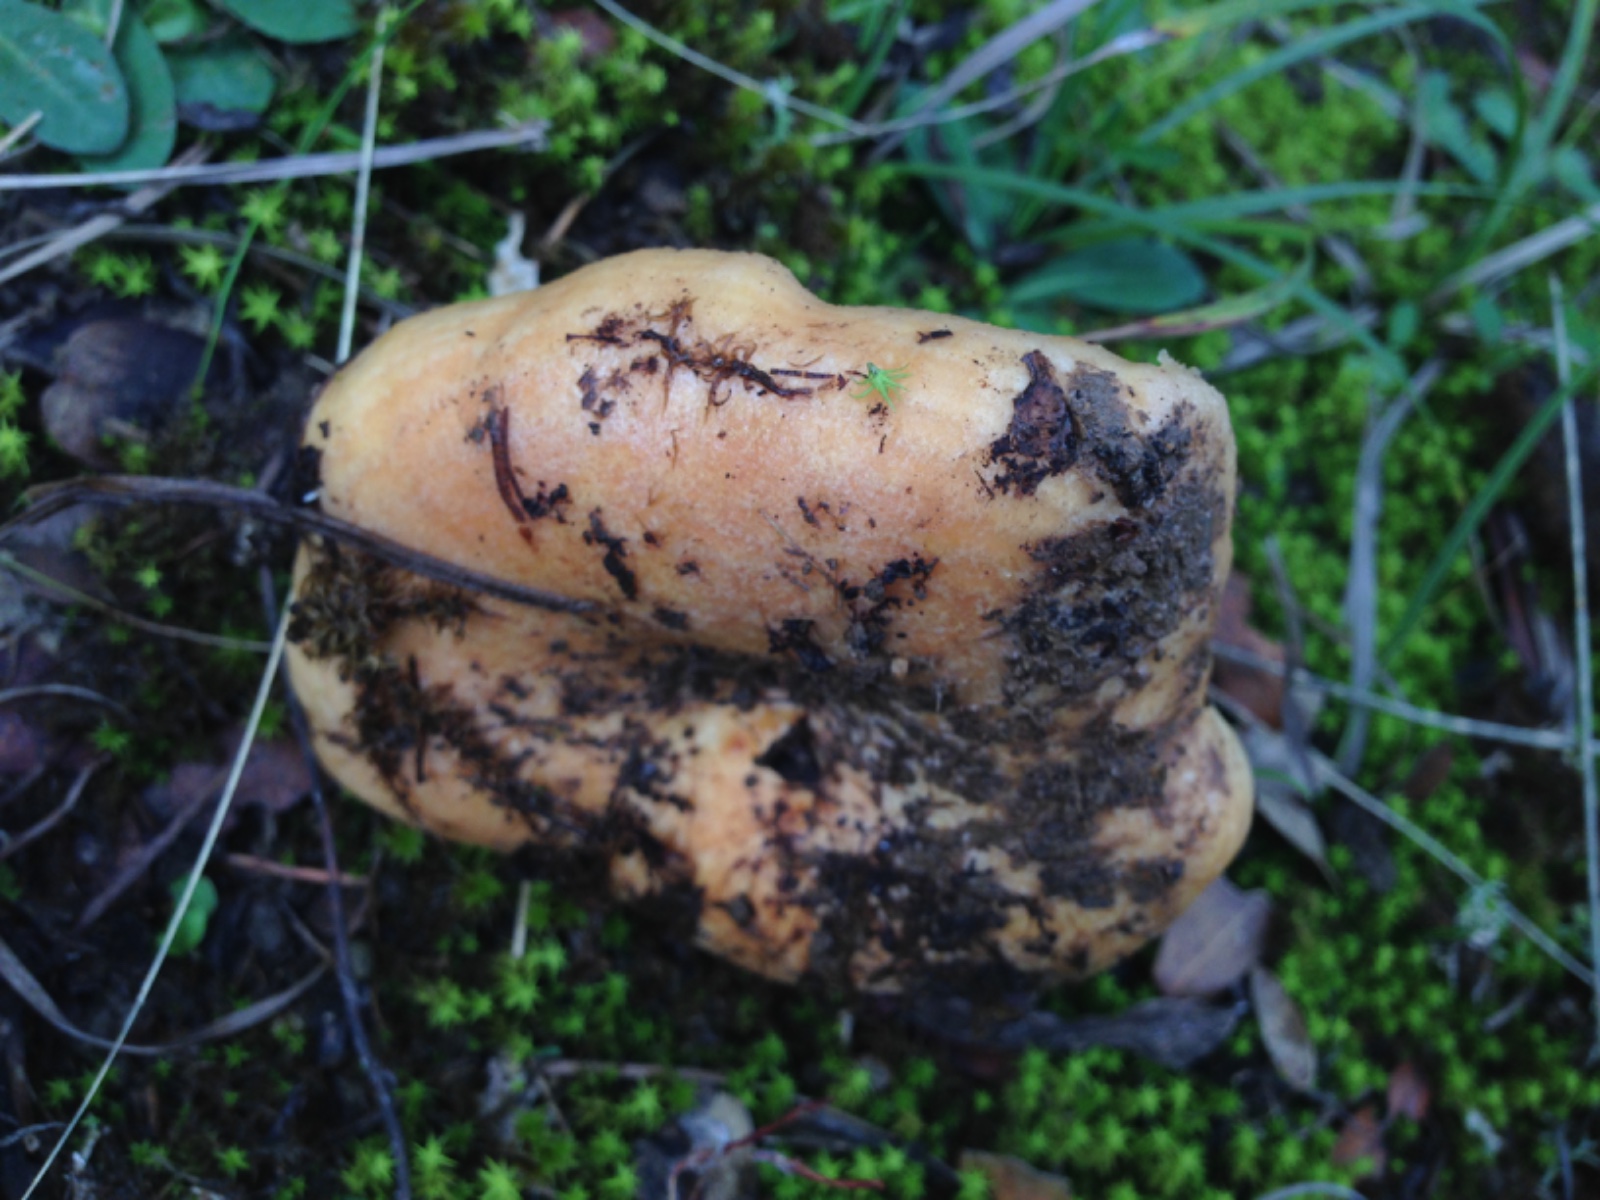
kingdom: Fungi
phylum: Basidiomycota
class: Agaricomycetes
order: Russulales
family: Russulaceae
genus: Lactarius
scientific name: Lactarius zonarius
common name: zoneret mælkehat
